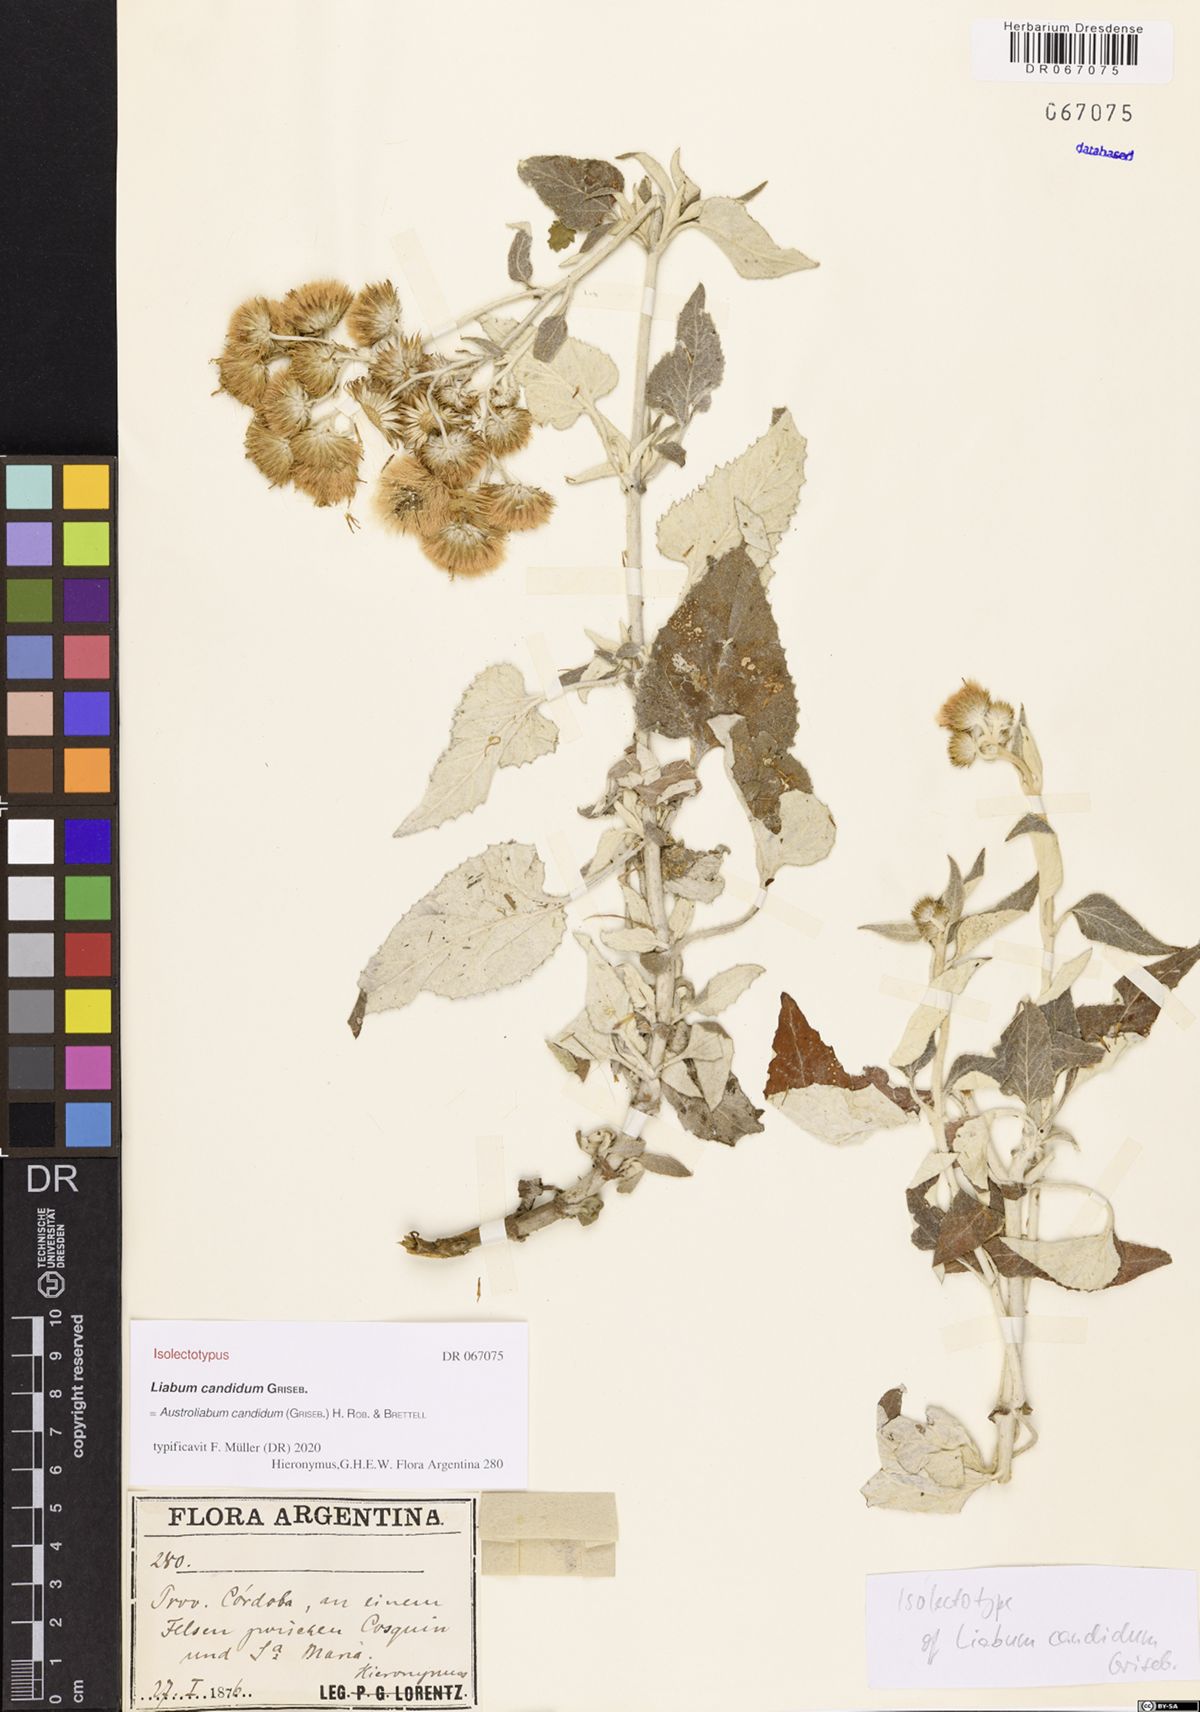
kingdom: Plantae
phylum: Tracheophyta
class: Magnoliopsida
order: Asterales
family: Asteraceae
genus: Microliabum
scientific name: Microliabum candidum
